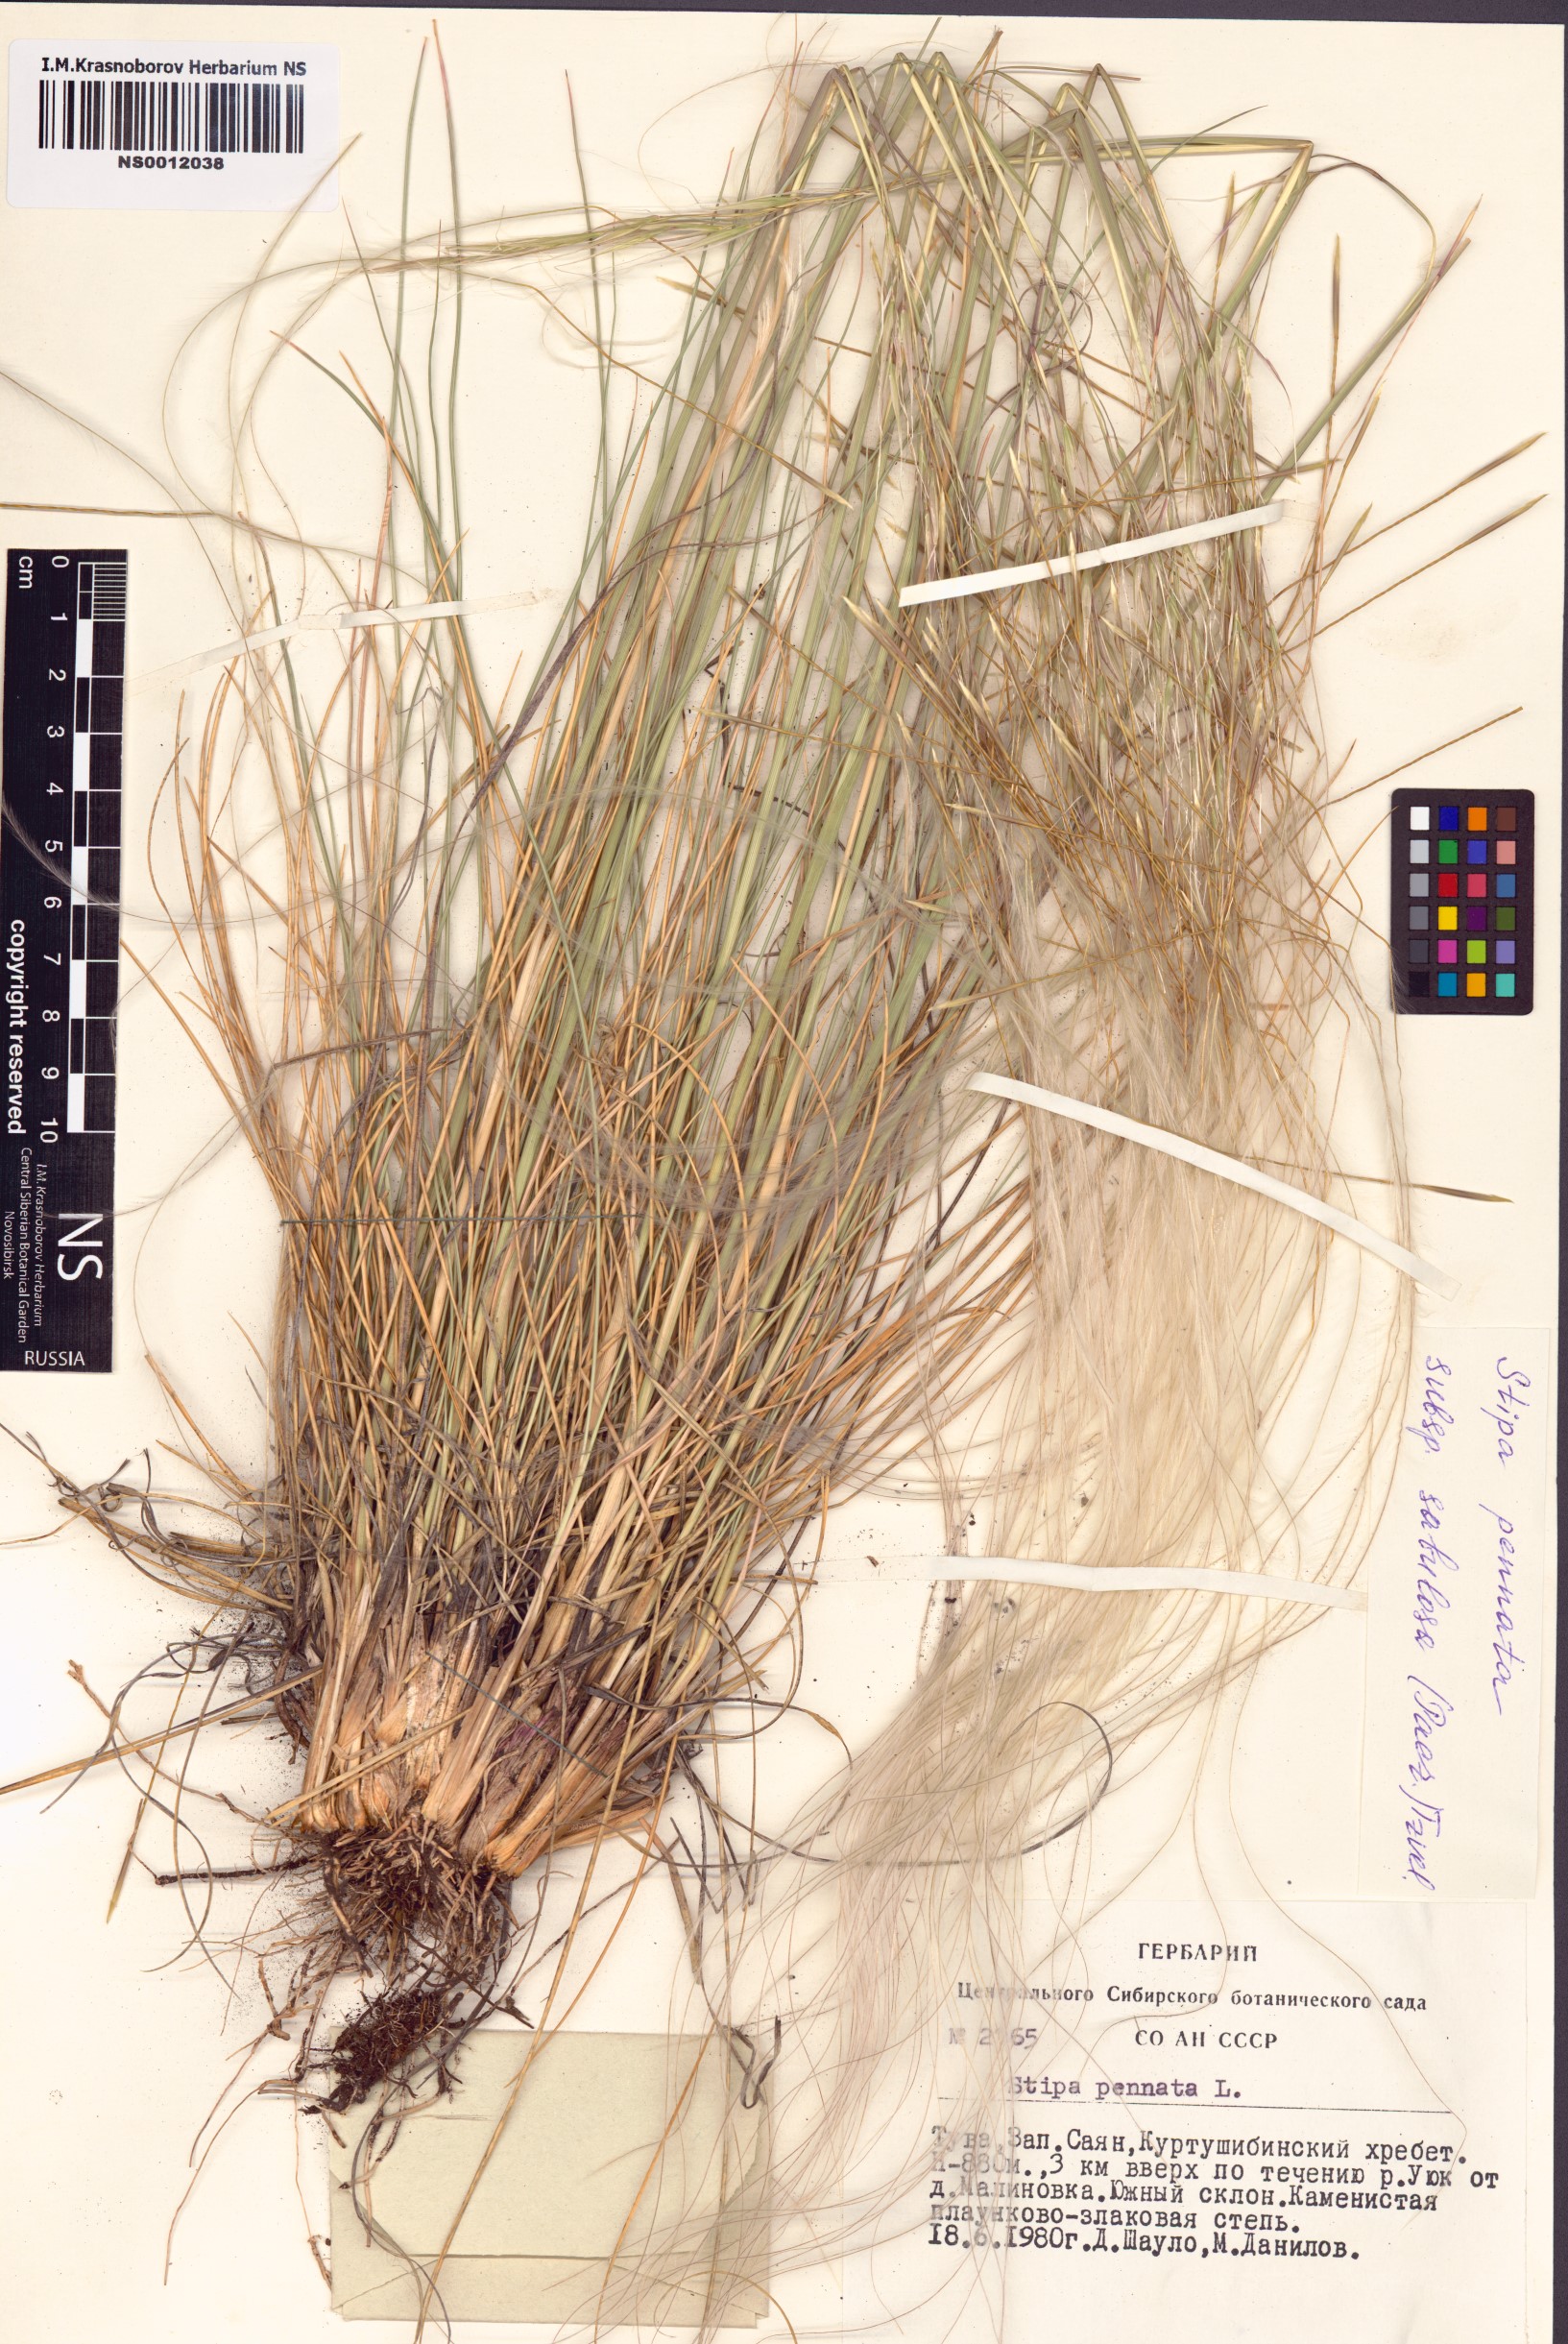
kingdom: Plantae
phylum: Tracheophyta
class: Liliopsida
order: Poales
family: Poaceae
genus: Stipa
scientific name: Stipa borysthenica
